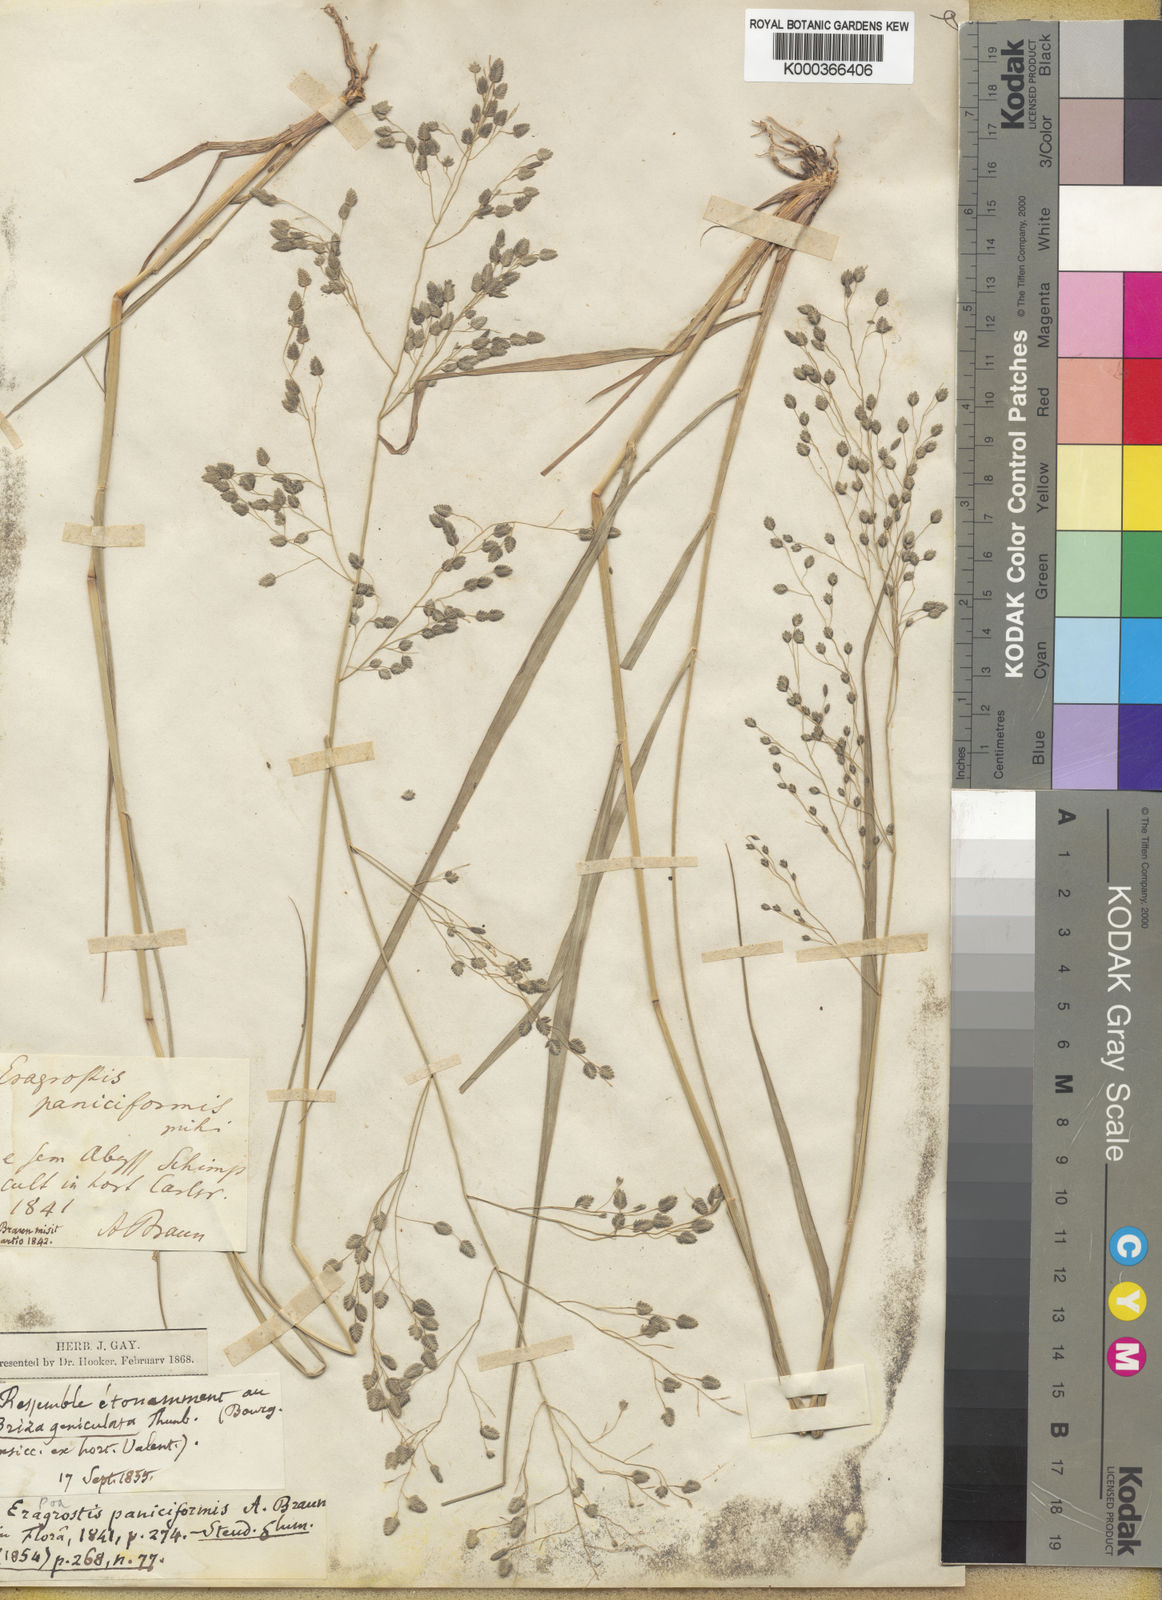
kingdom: Plantae
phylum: Tracheophyta
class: Liliopsida
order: Poales
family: Poaceae
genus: Eragrostis
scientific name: Eragrostis paniciformis
